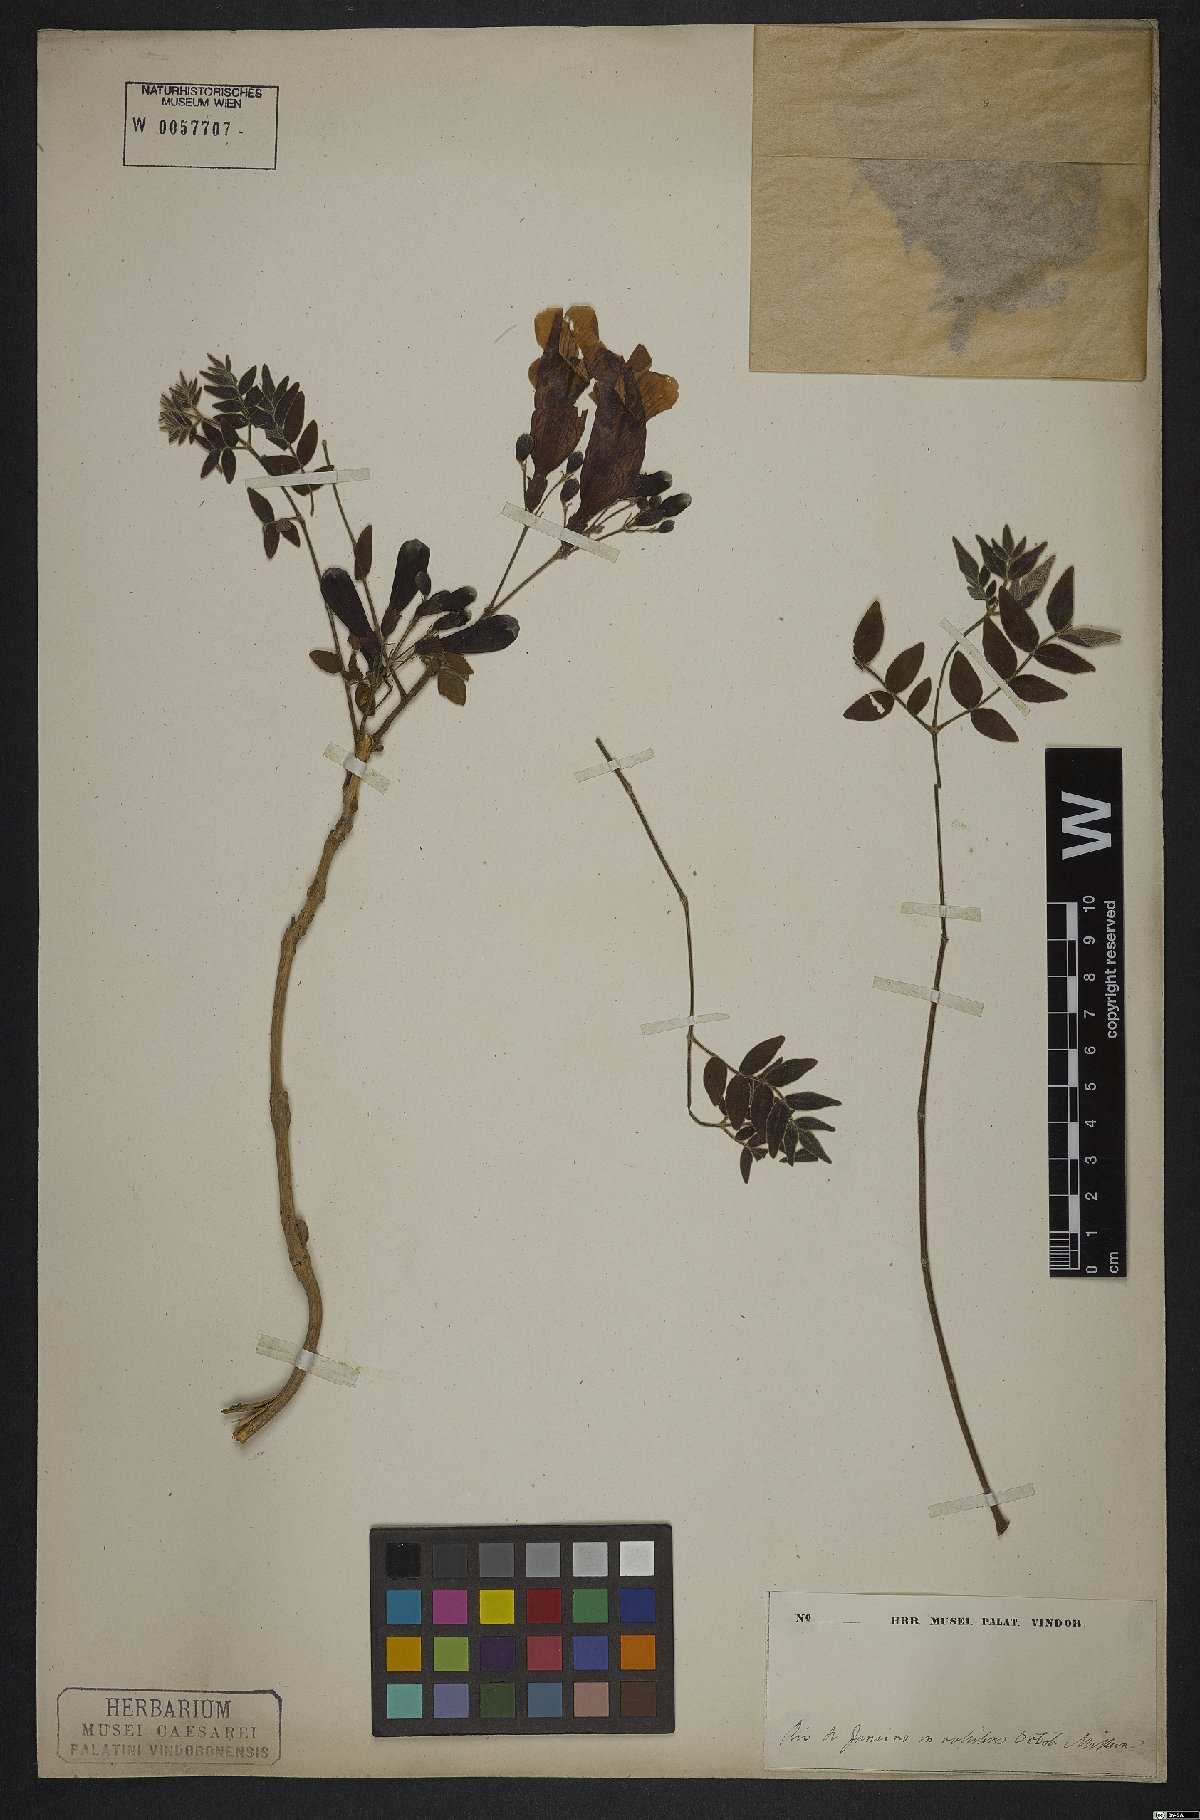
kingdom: Plantae
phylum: Tracheophyta
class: Magnoliopsida
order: Lamiales
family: Bignoniaceae
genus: Jacaranda
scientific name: Jacaranda jasminoides
